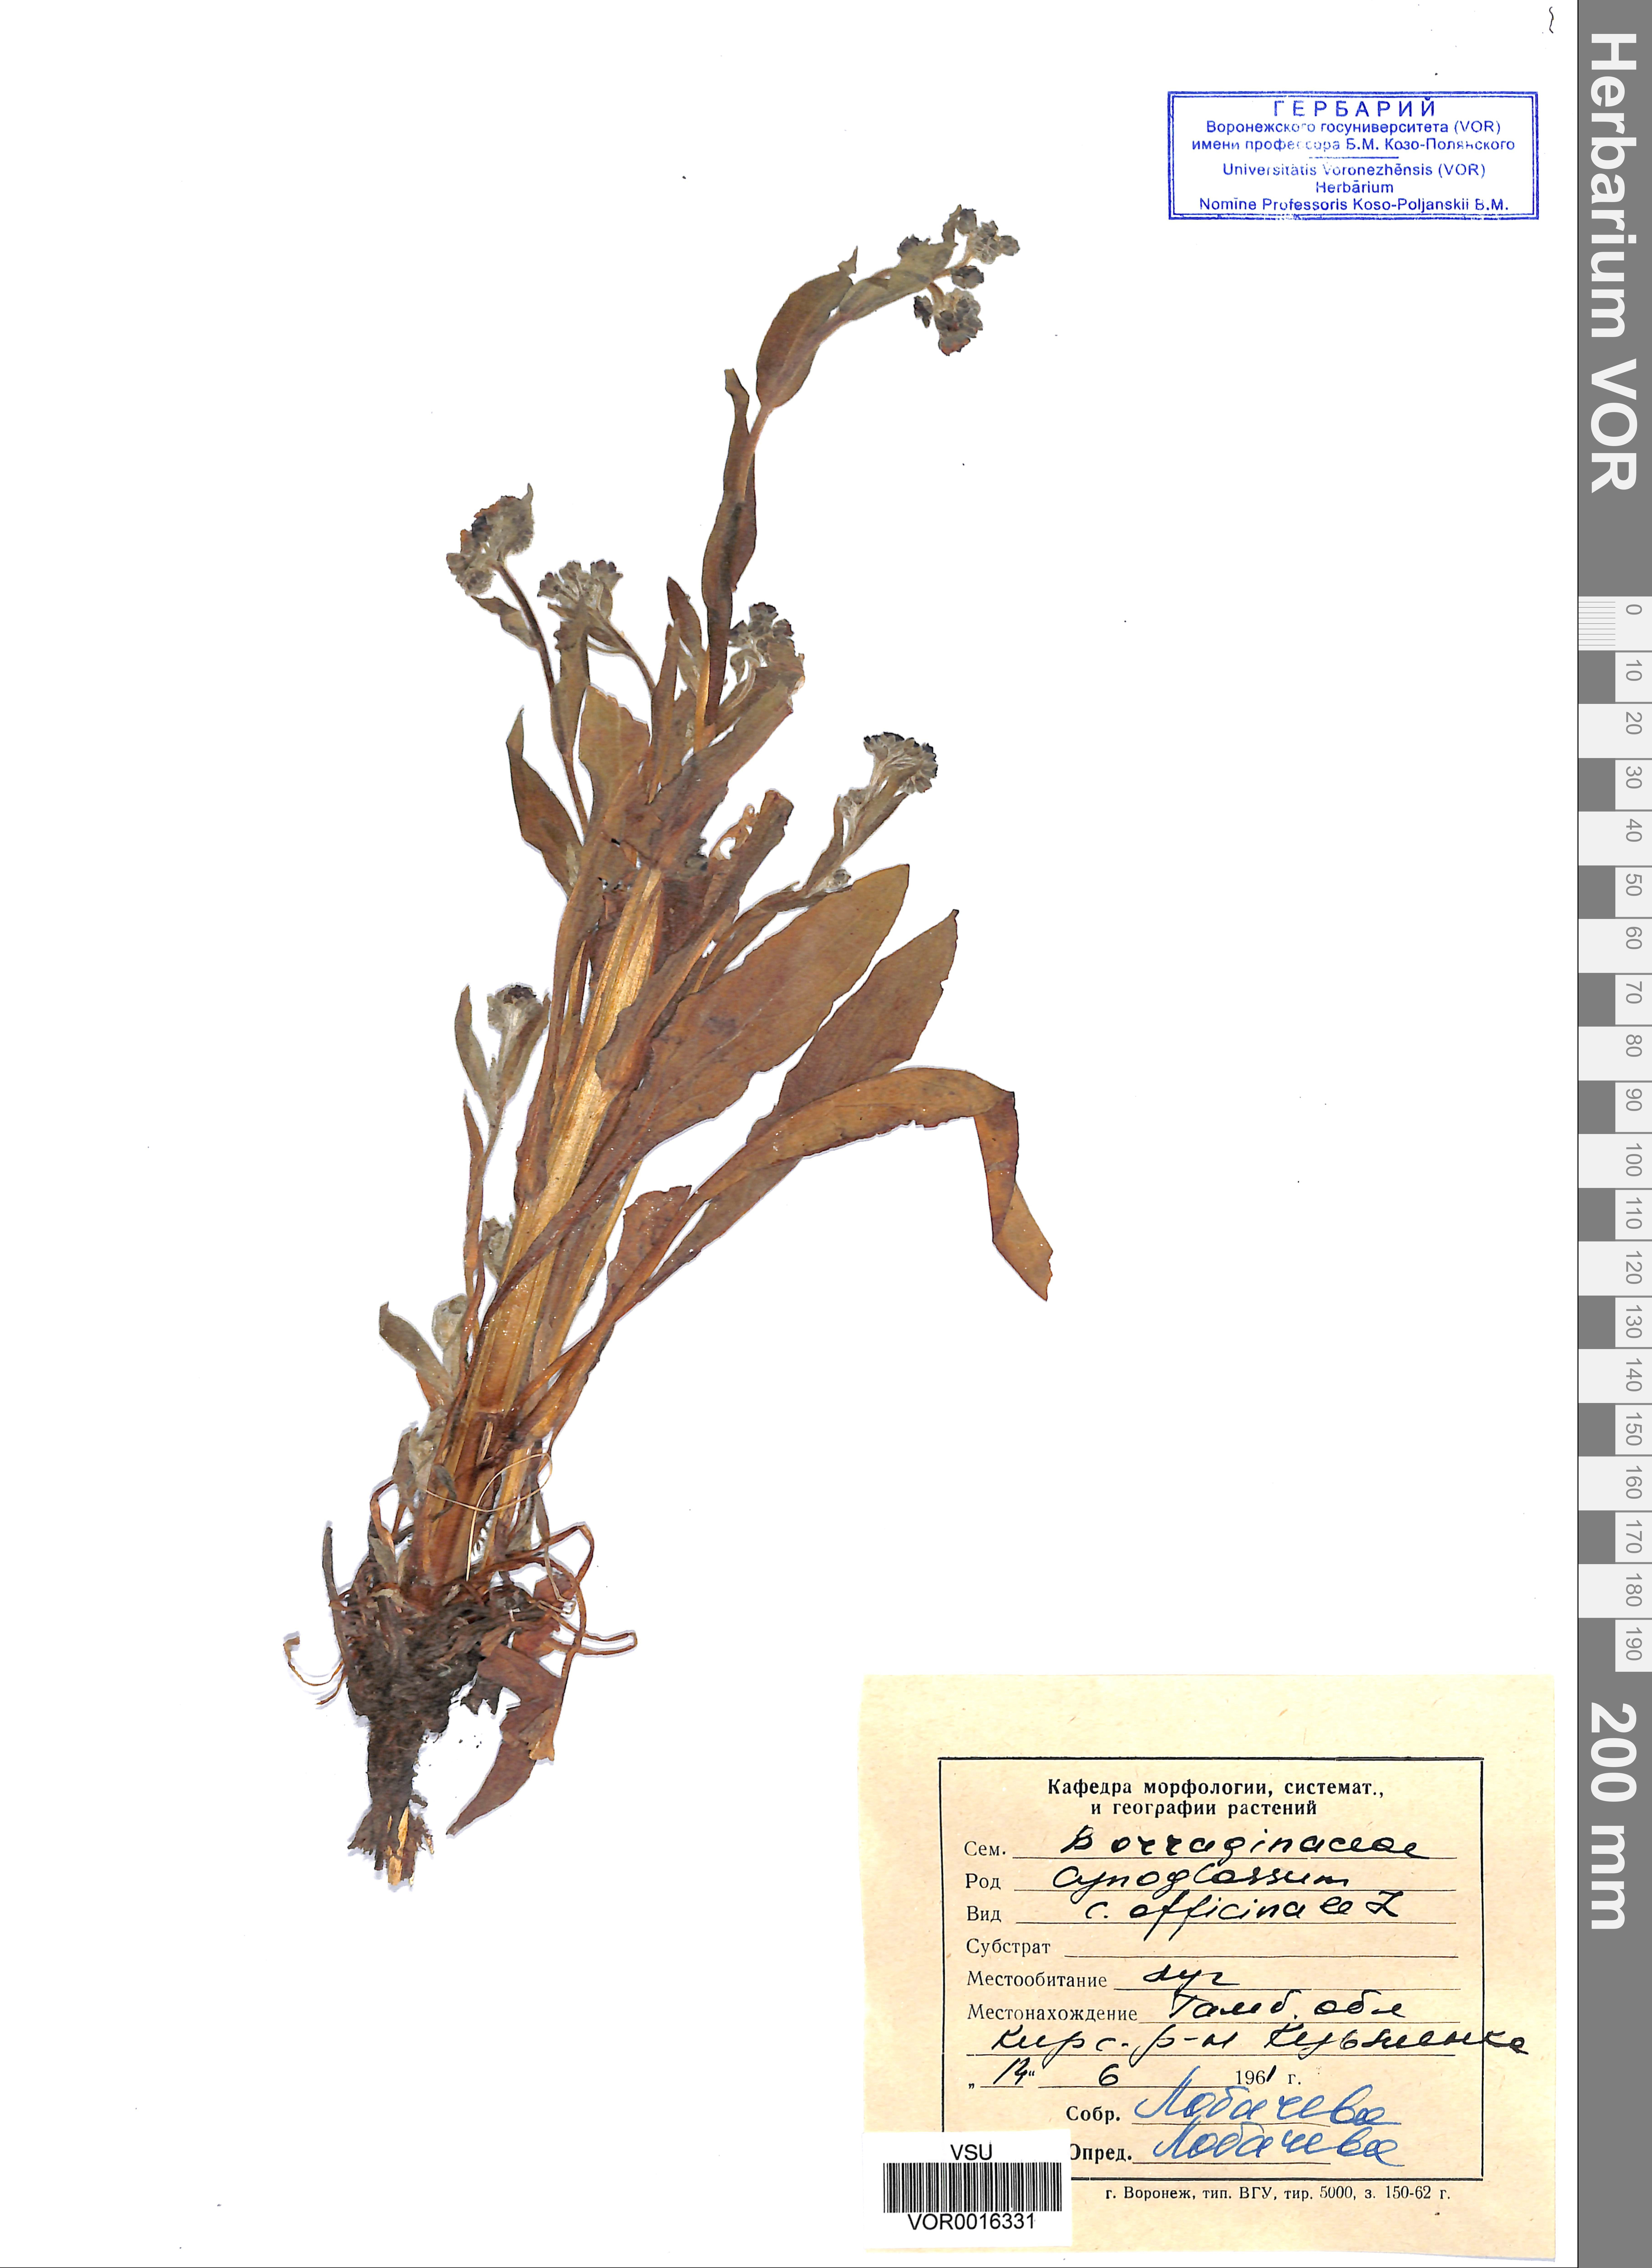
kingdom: Plantae
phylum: Tracheophyta
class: Magnoliopsida
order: Boraginales
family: Boraginaceae
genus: Cynoglossum
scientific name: Cynoglossum officinale
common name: Hound's-tongue
